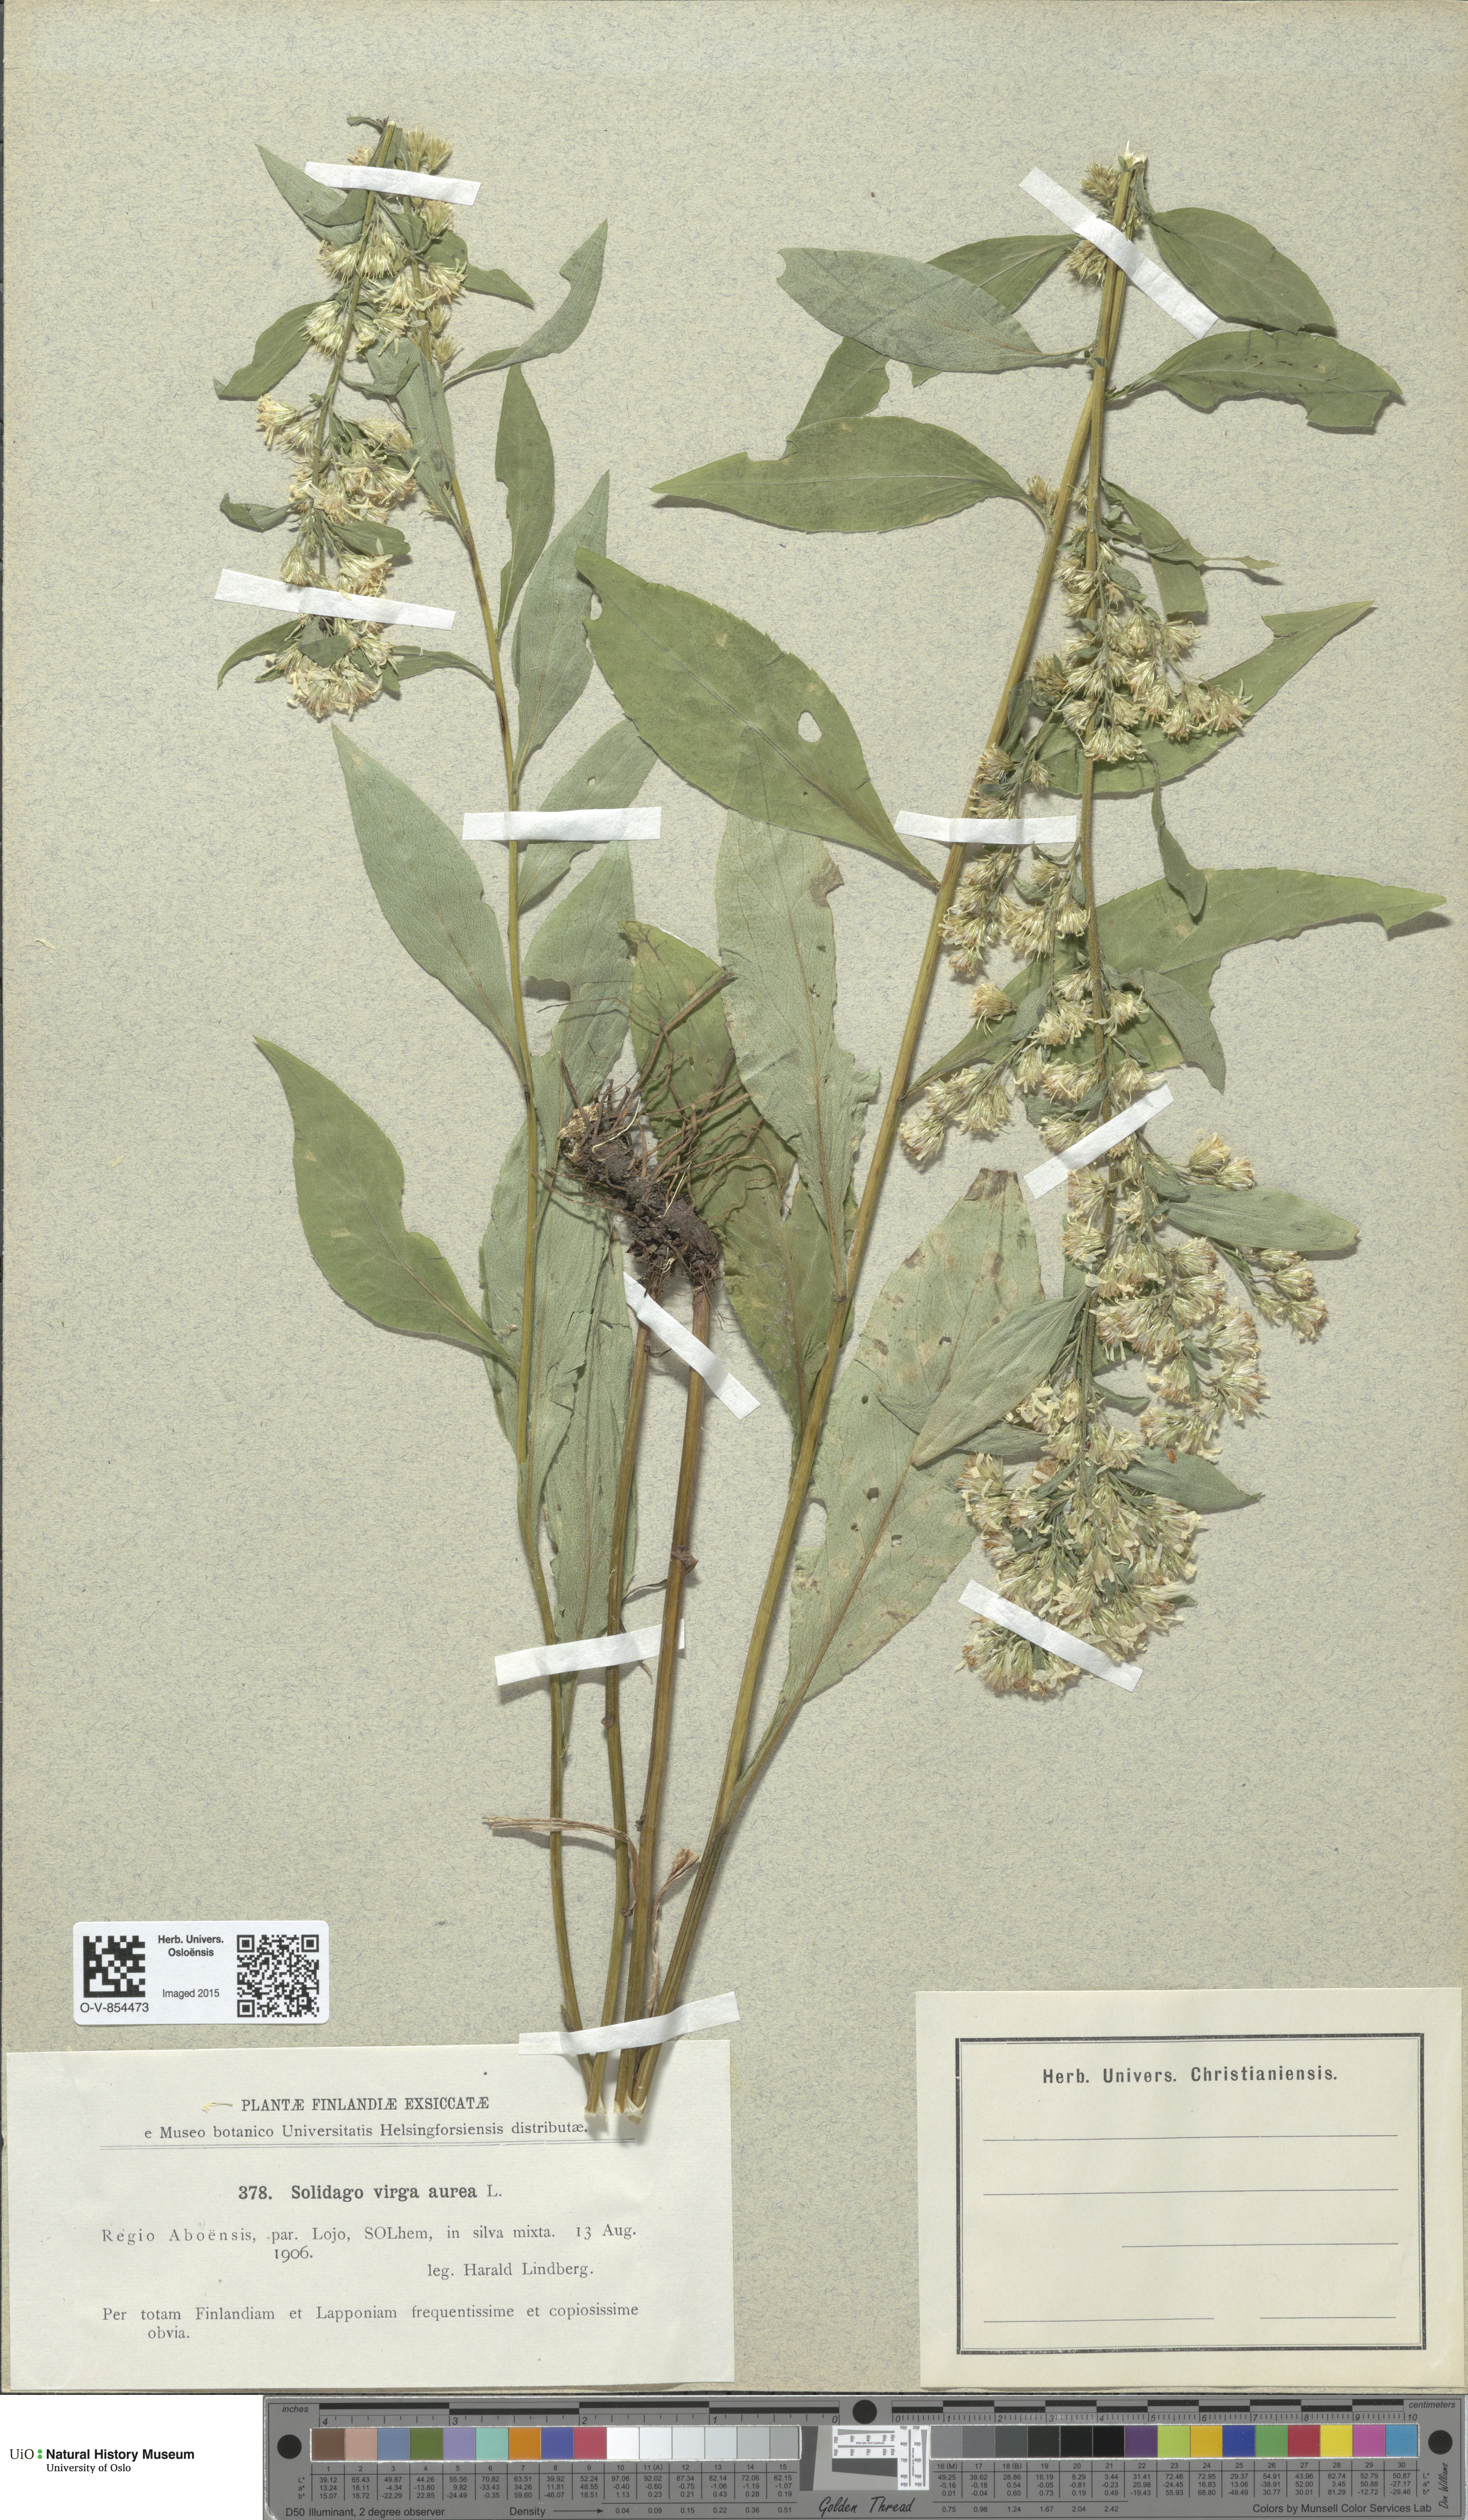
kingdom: Plantae
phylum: Tracheophyta
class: Magnoliopsida
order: Asterales
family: Asteraceae
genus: Solidago
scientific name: Solidago virgaurea
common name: Goldenrod
